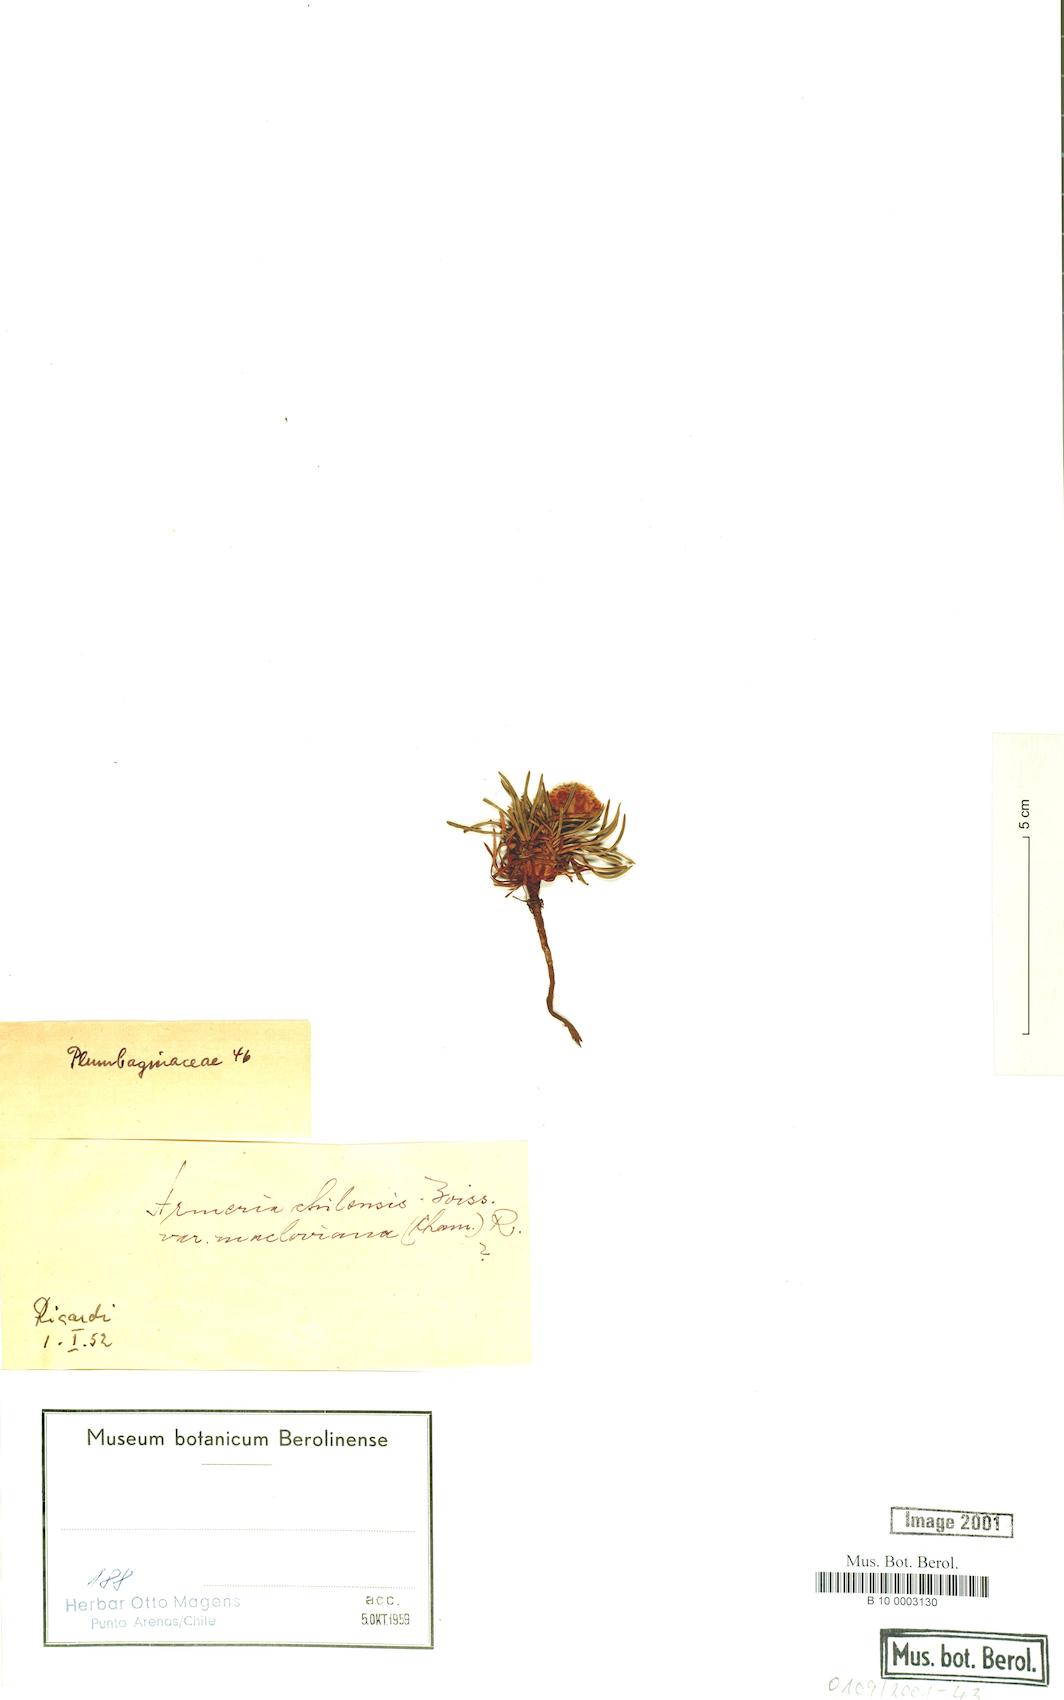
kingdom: Plantae
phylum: Tracheophyta
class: Magnoliopsida
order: Caryophyllales
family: Plumbaginaceae
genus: Armeria
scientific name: Armeria curvifolia
